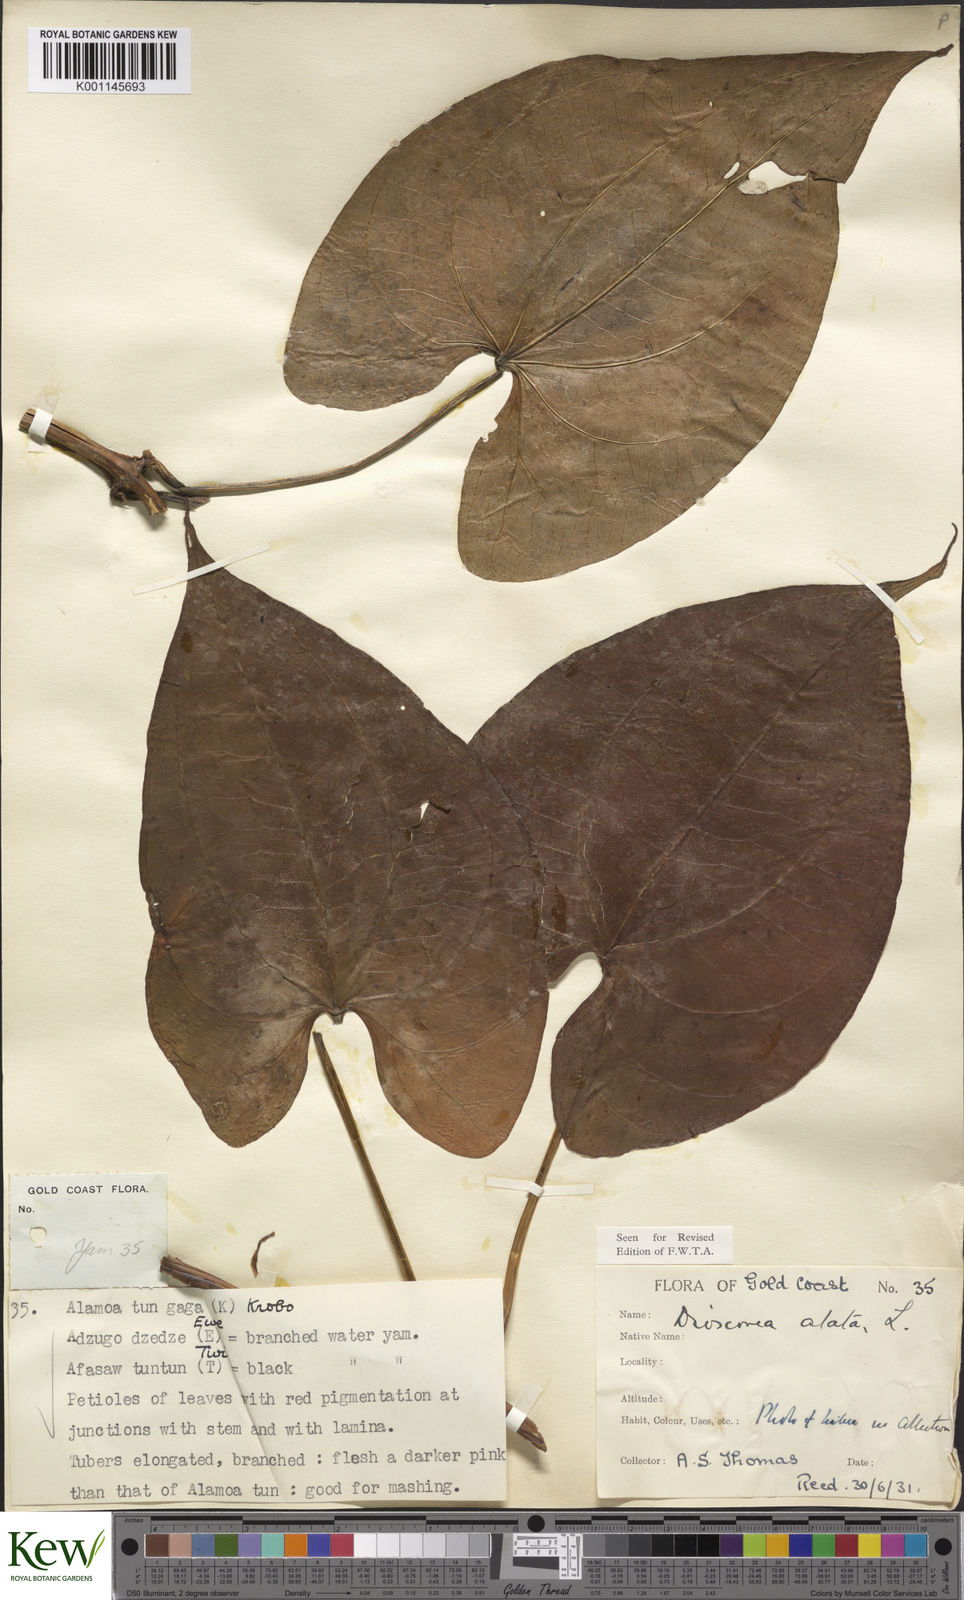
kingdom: Plantae
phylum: Tracheophyta
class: Liliopsida
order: Dioscoreales
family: Dioscoreaceae
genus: Dioscorea
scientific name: Dioscorea alata
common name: Water yam
